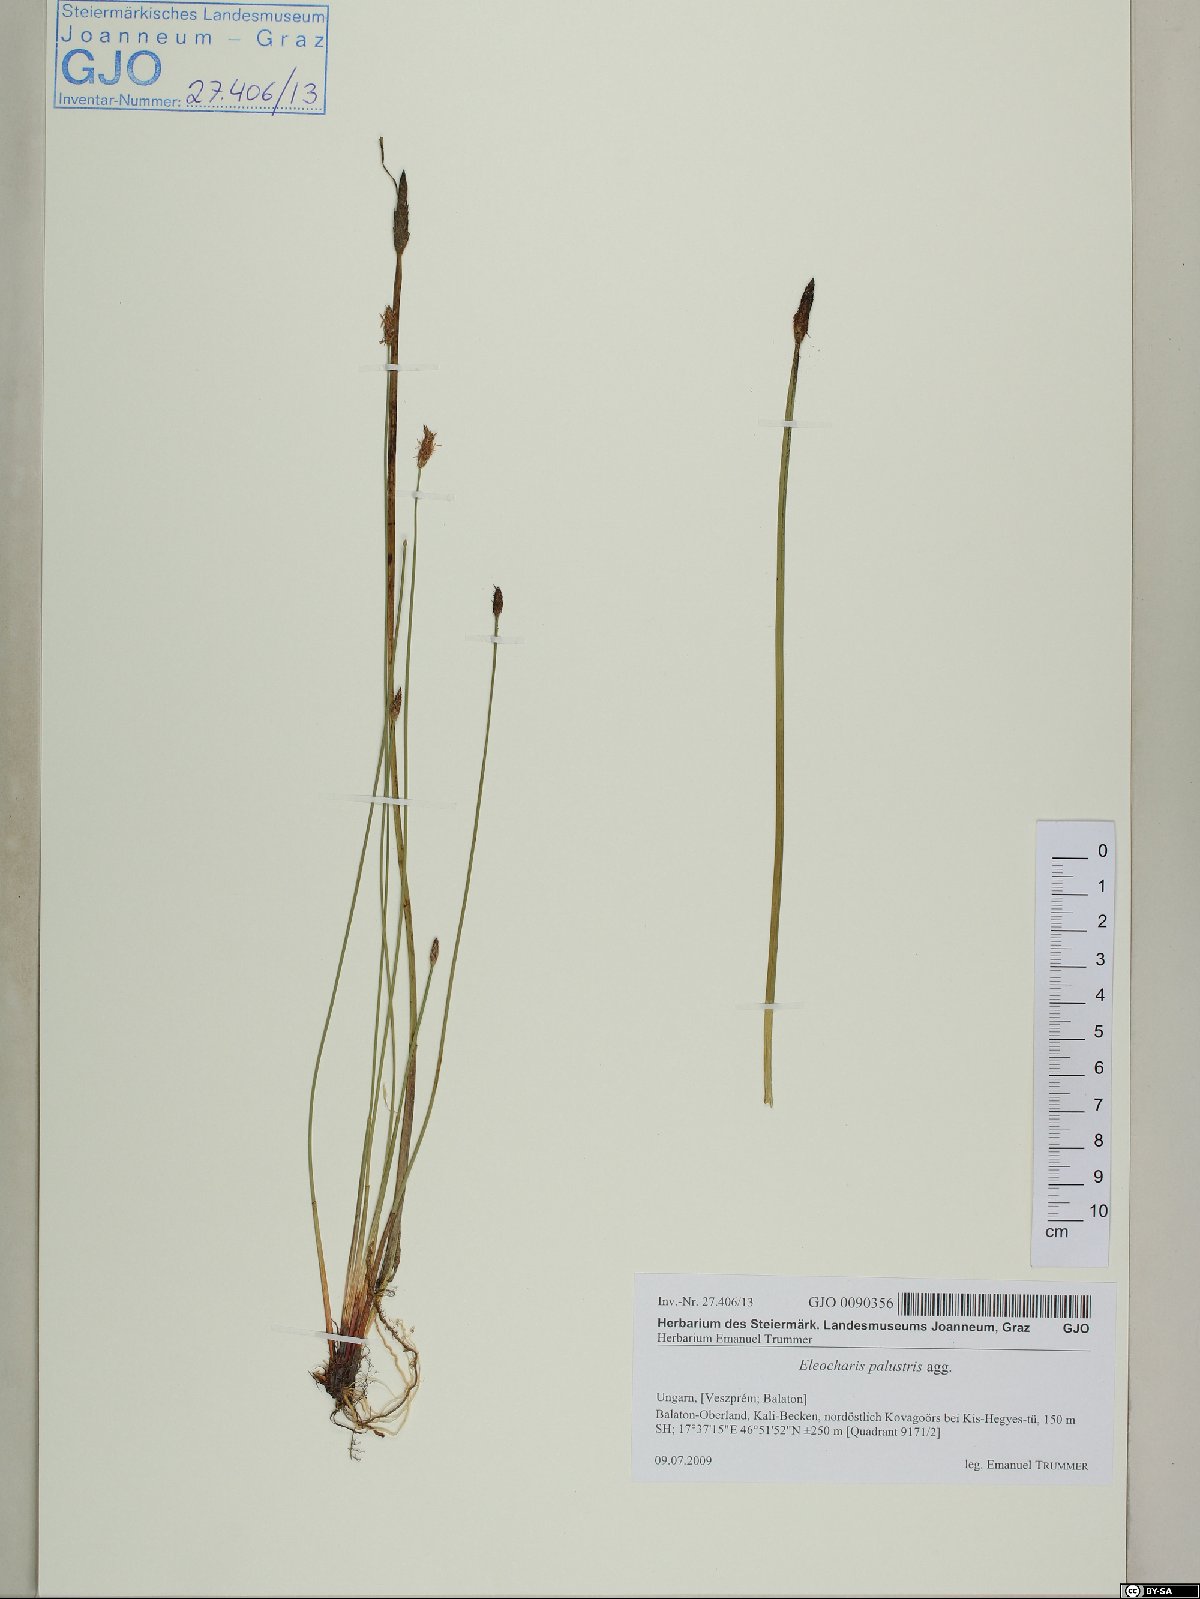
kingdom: Plantae
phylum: Tracheophyta
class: Liliopsida
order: Poales
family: Cyperaceae
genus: Eleocharis
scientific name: Eleocharis palustris
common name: Common spike-rush
